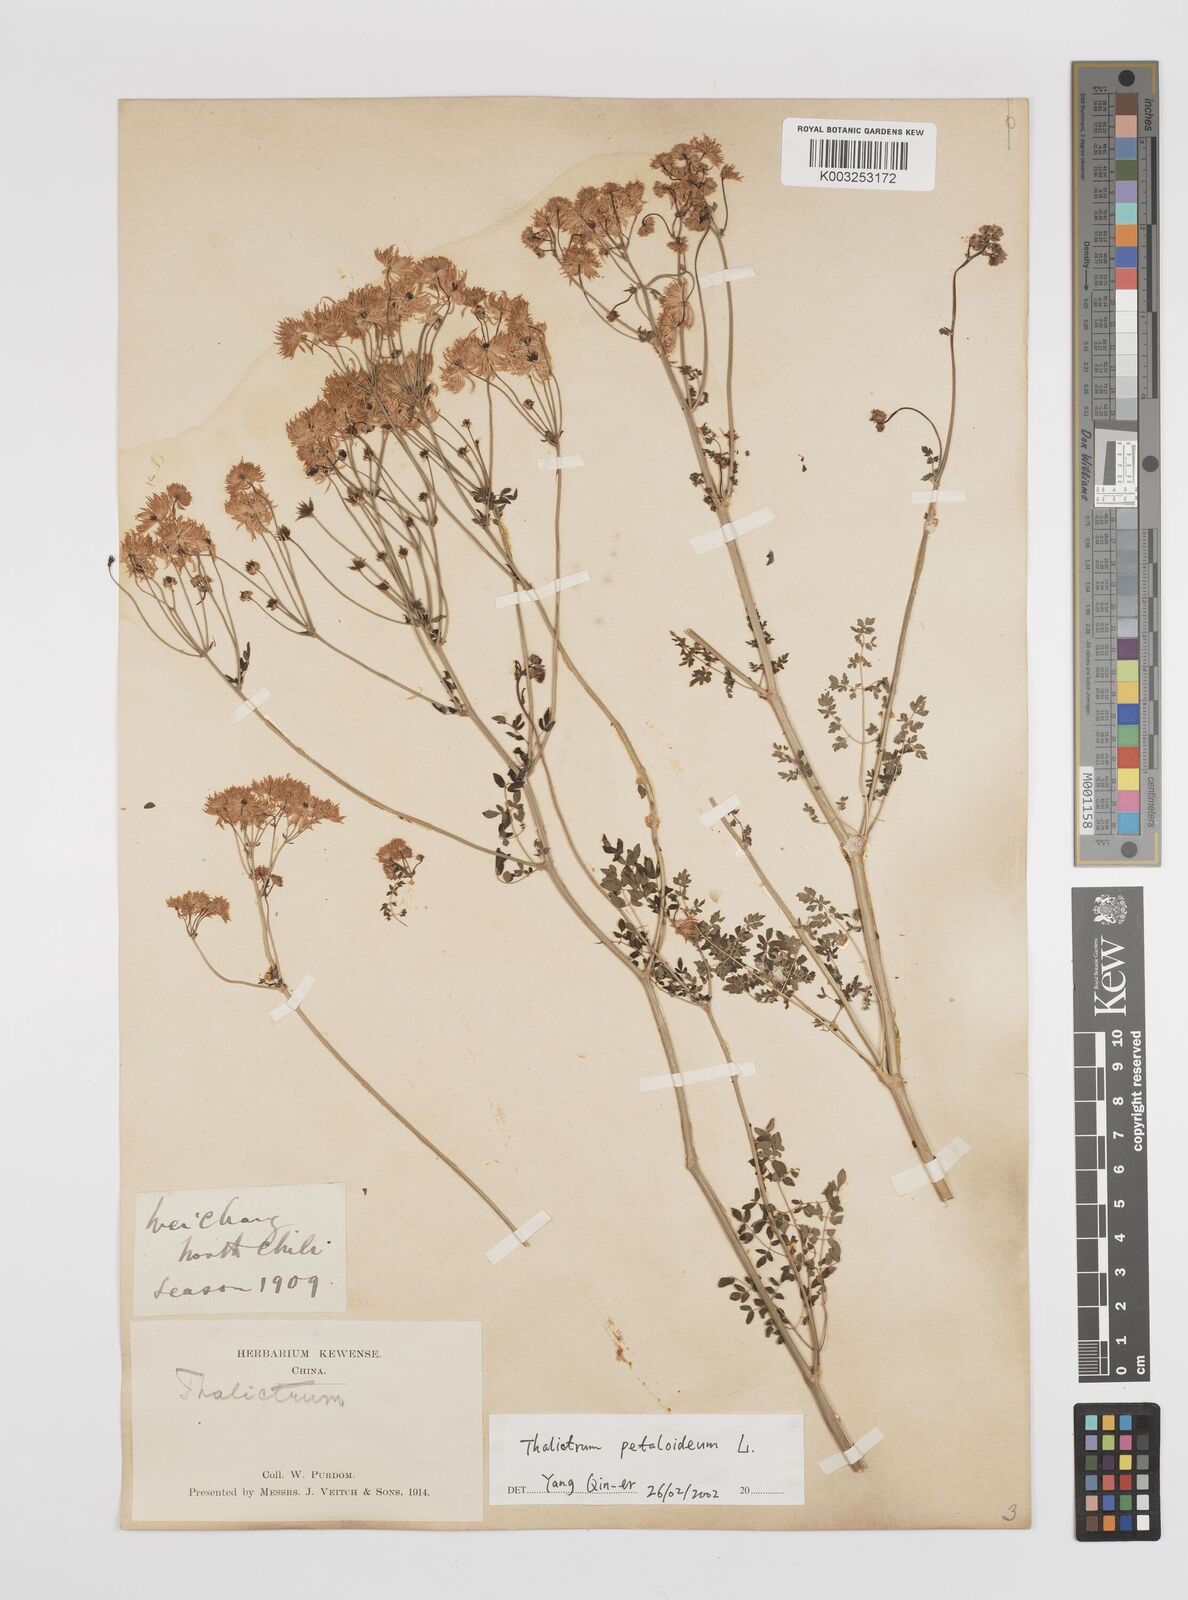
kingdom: Plantae
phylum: Tracheophyta
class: Magnoliopsida
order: Ranunculales
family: Ranunculaceae
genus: Thalictrum
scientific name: Thalictrum petaloideum
